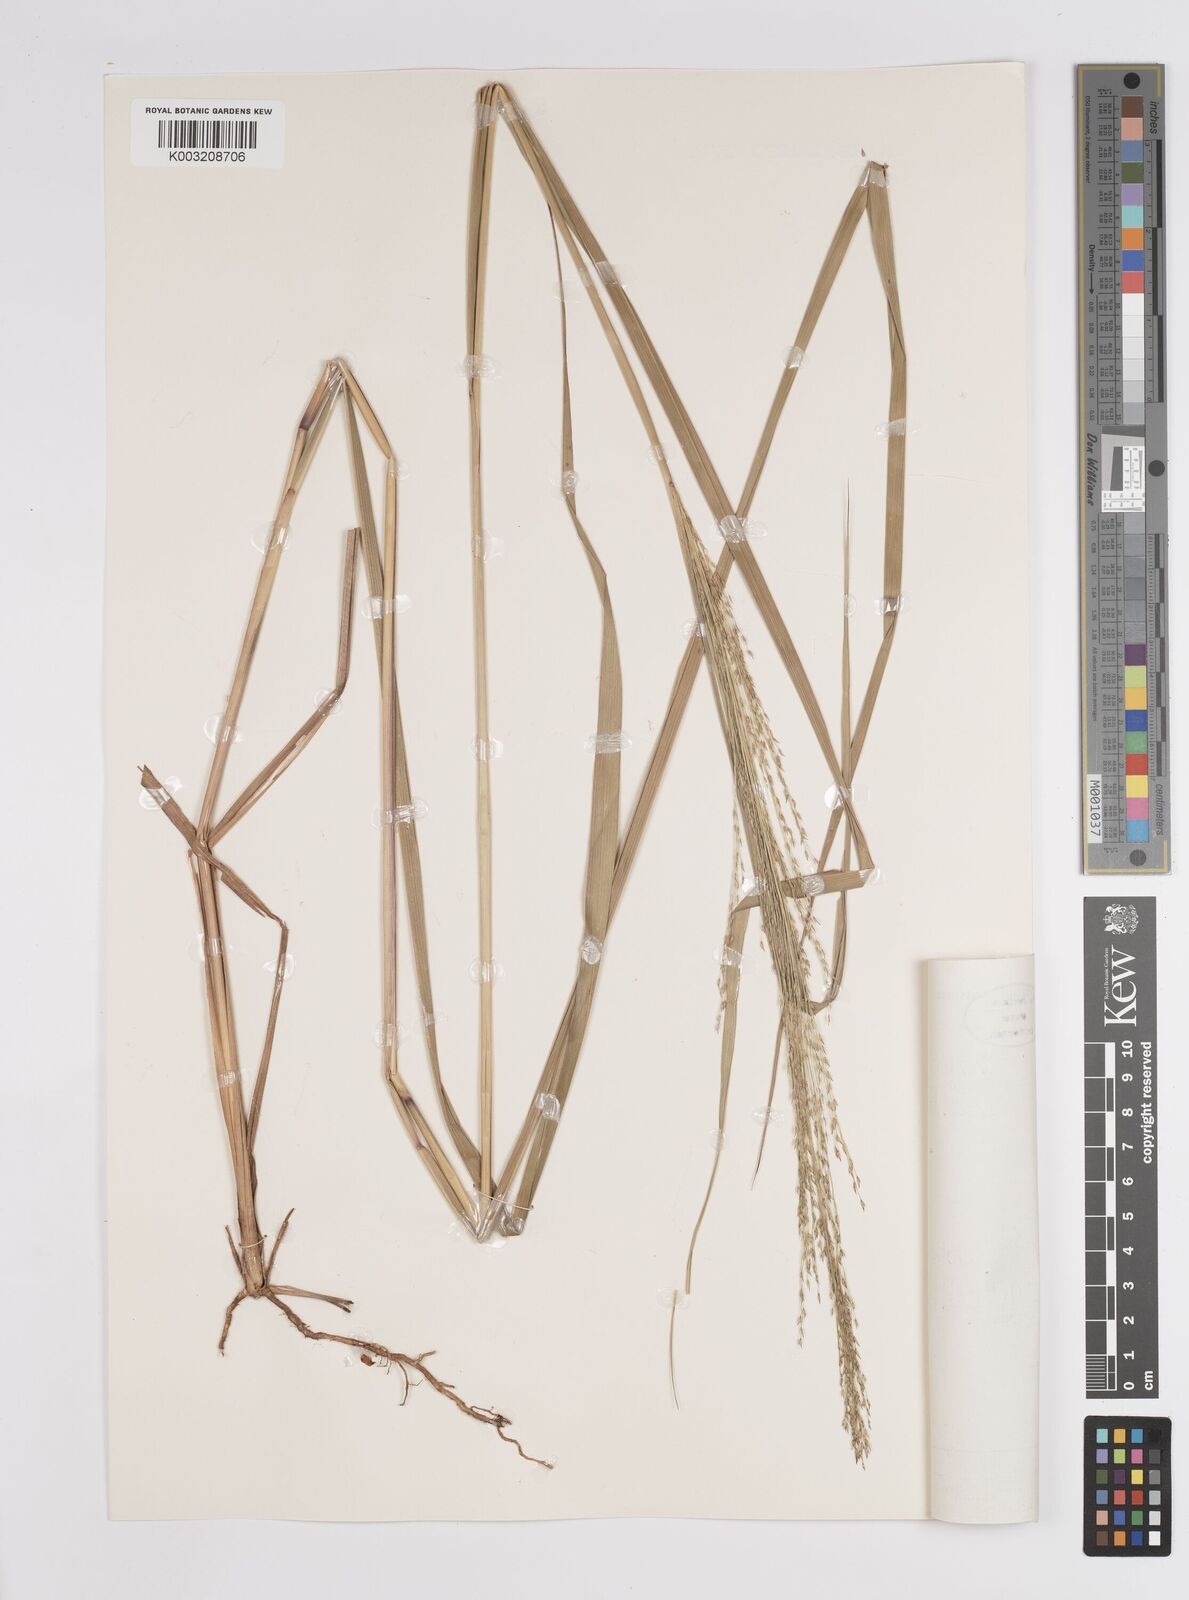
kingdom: Plantae
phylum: Tracheophyta
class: Liliopsida
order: Poales
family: Poaceae
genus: Panicum
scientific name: Panicum phragmitoides
